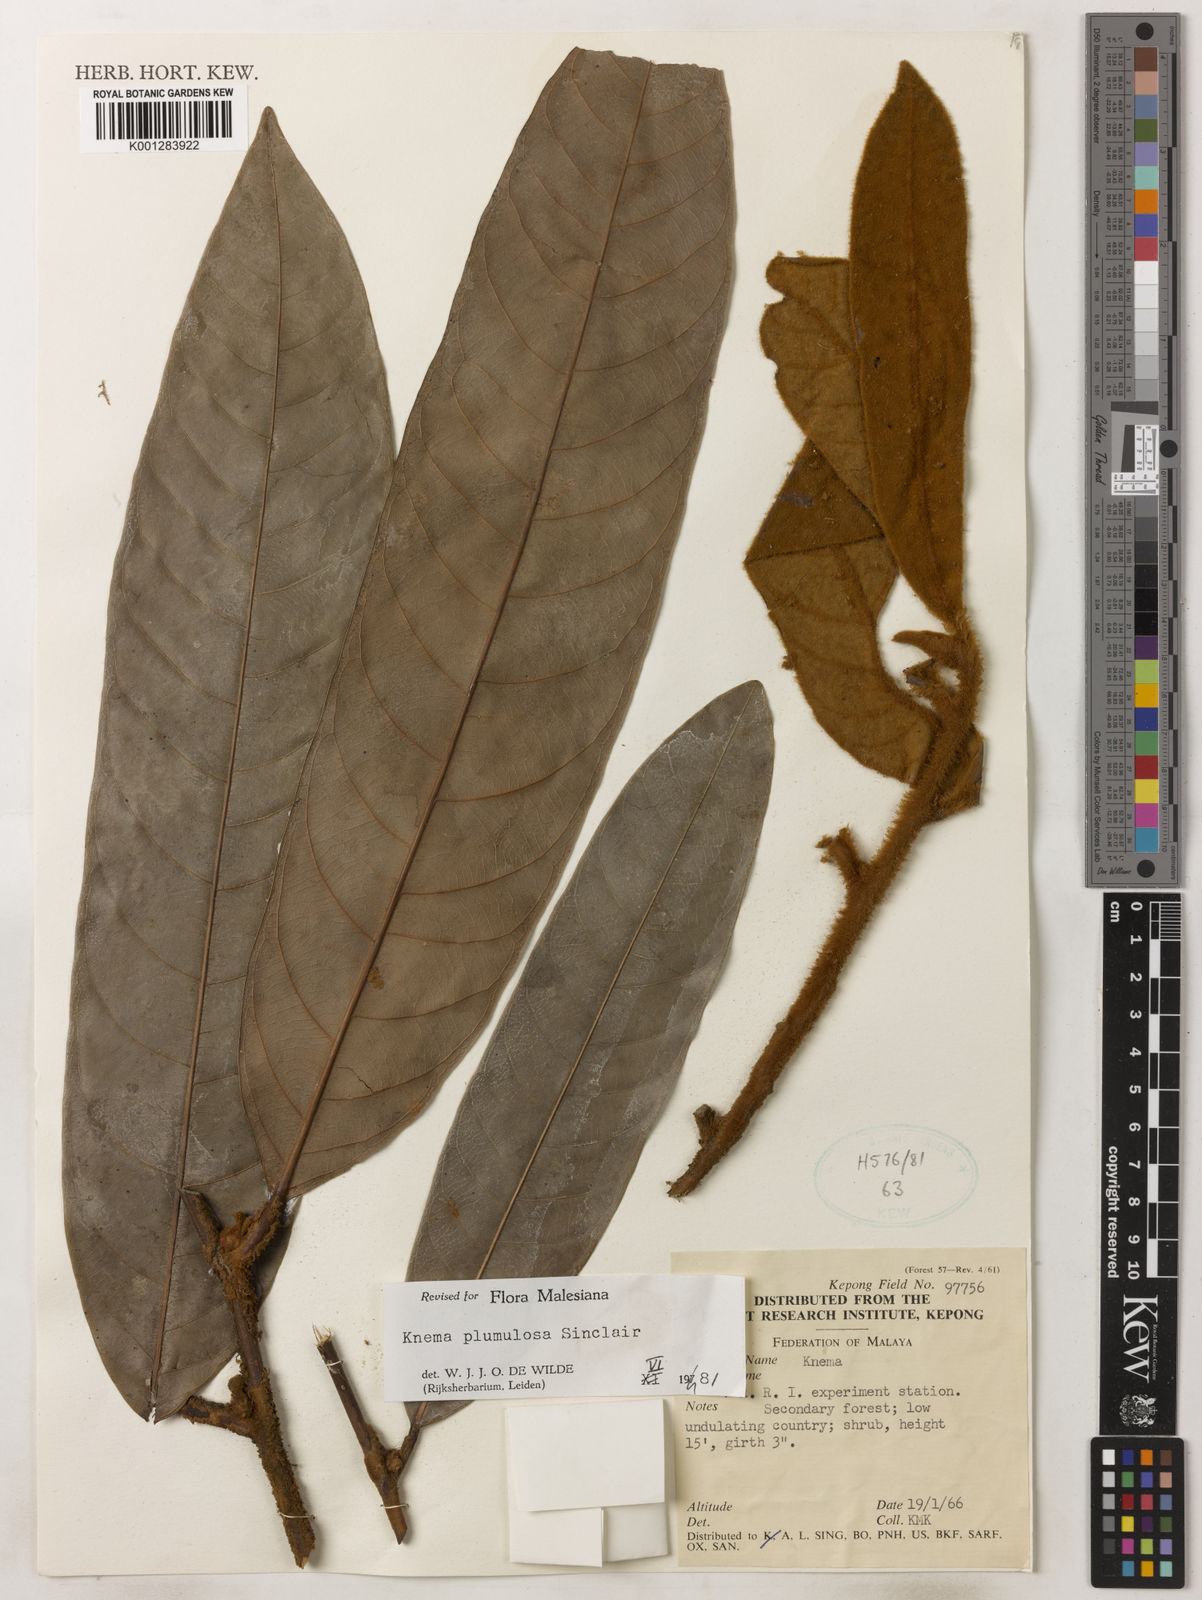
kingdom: Plantae
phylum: Tracheophyta
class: Magnoliopsida
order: Magnoliales
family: Myristicaceae
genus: Knema
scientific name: Knema plumulosa
